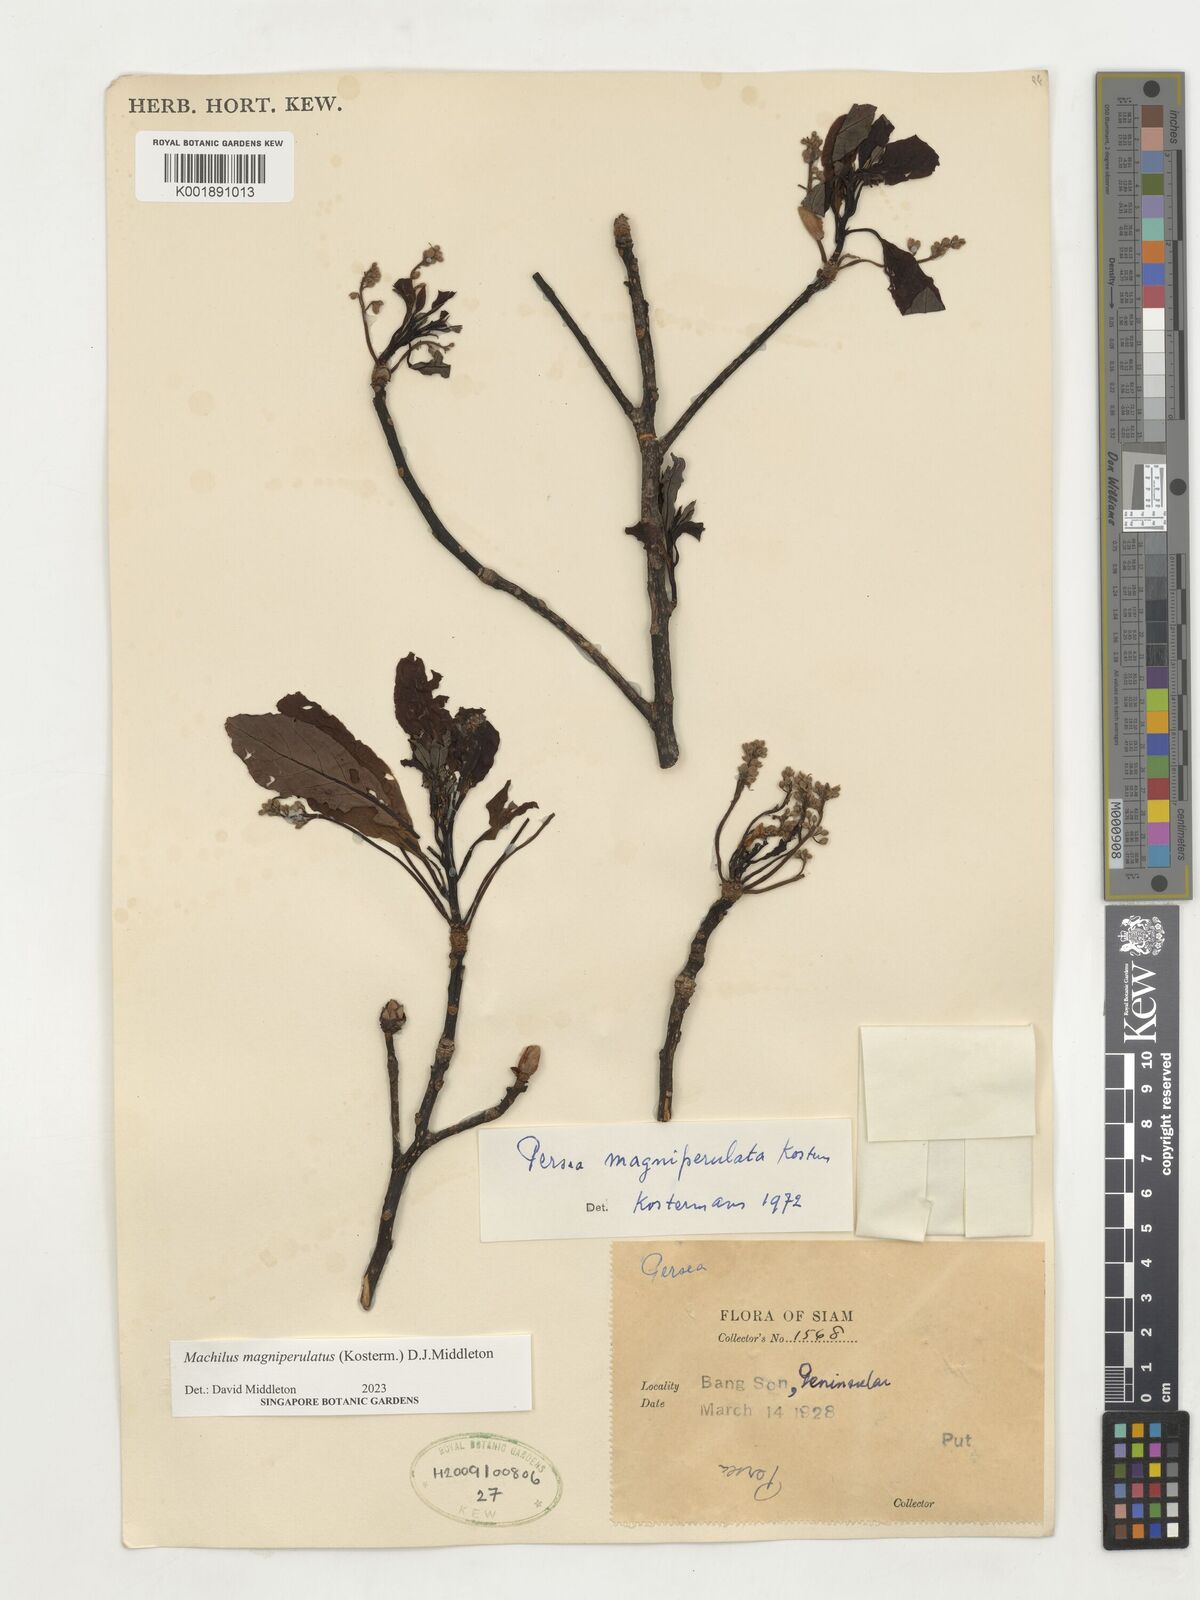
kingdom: Plantae
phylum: Tracheophyta
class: Magnoliopsida
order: Laurales
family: Lauraceae
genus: Machilus
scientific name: Machilus
